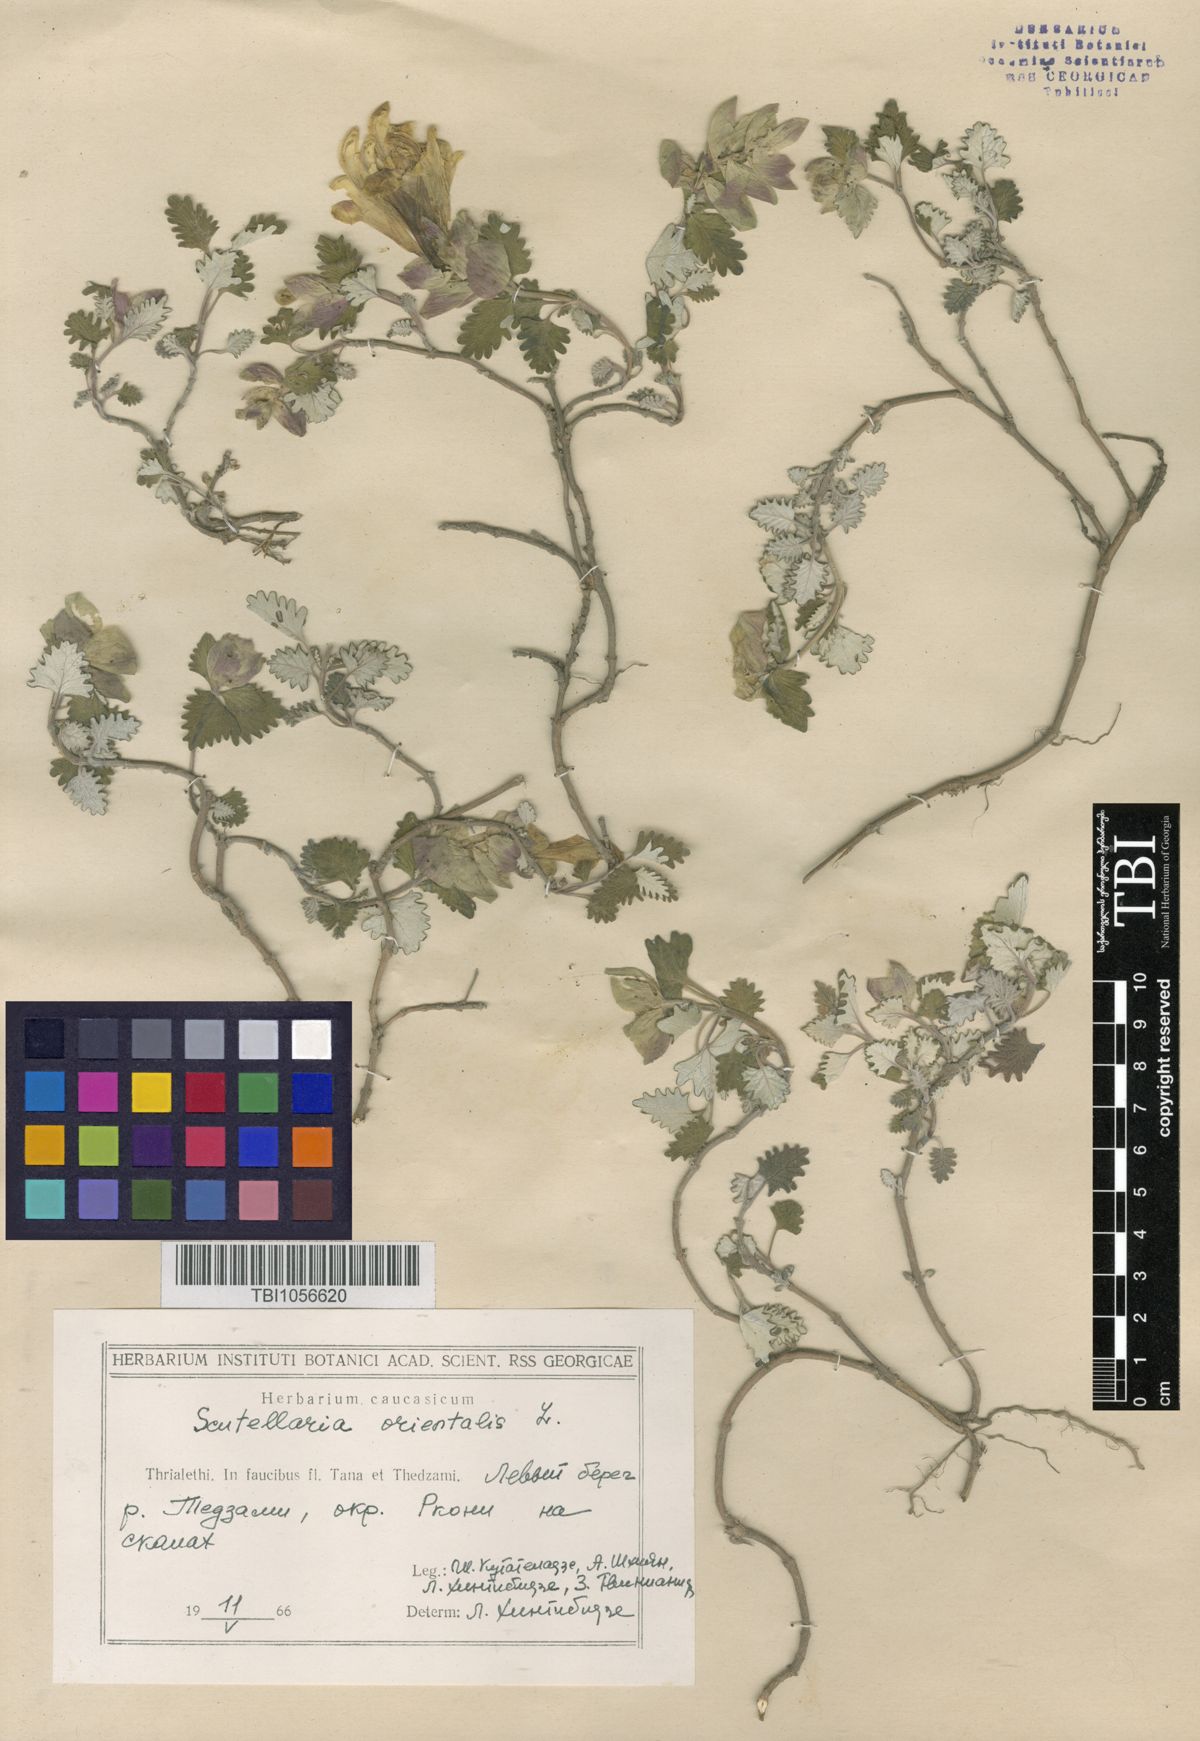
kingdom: Plantae
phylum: Tracheophyta
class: Magnoliopsida
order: Lamiales
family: Lamiaceae
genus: Scutellaria
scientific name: Scutellaria orientalis
